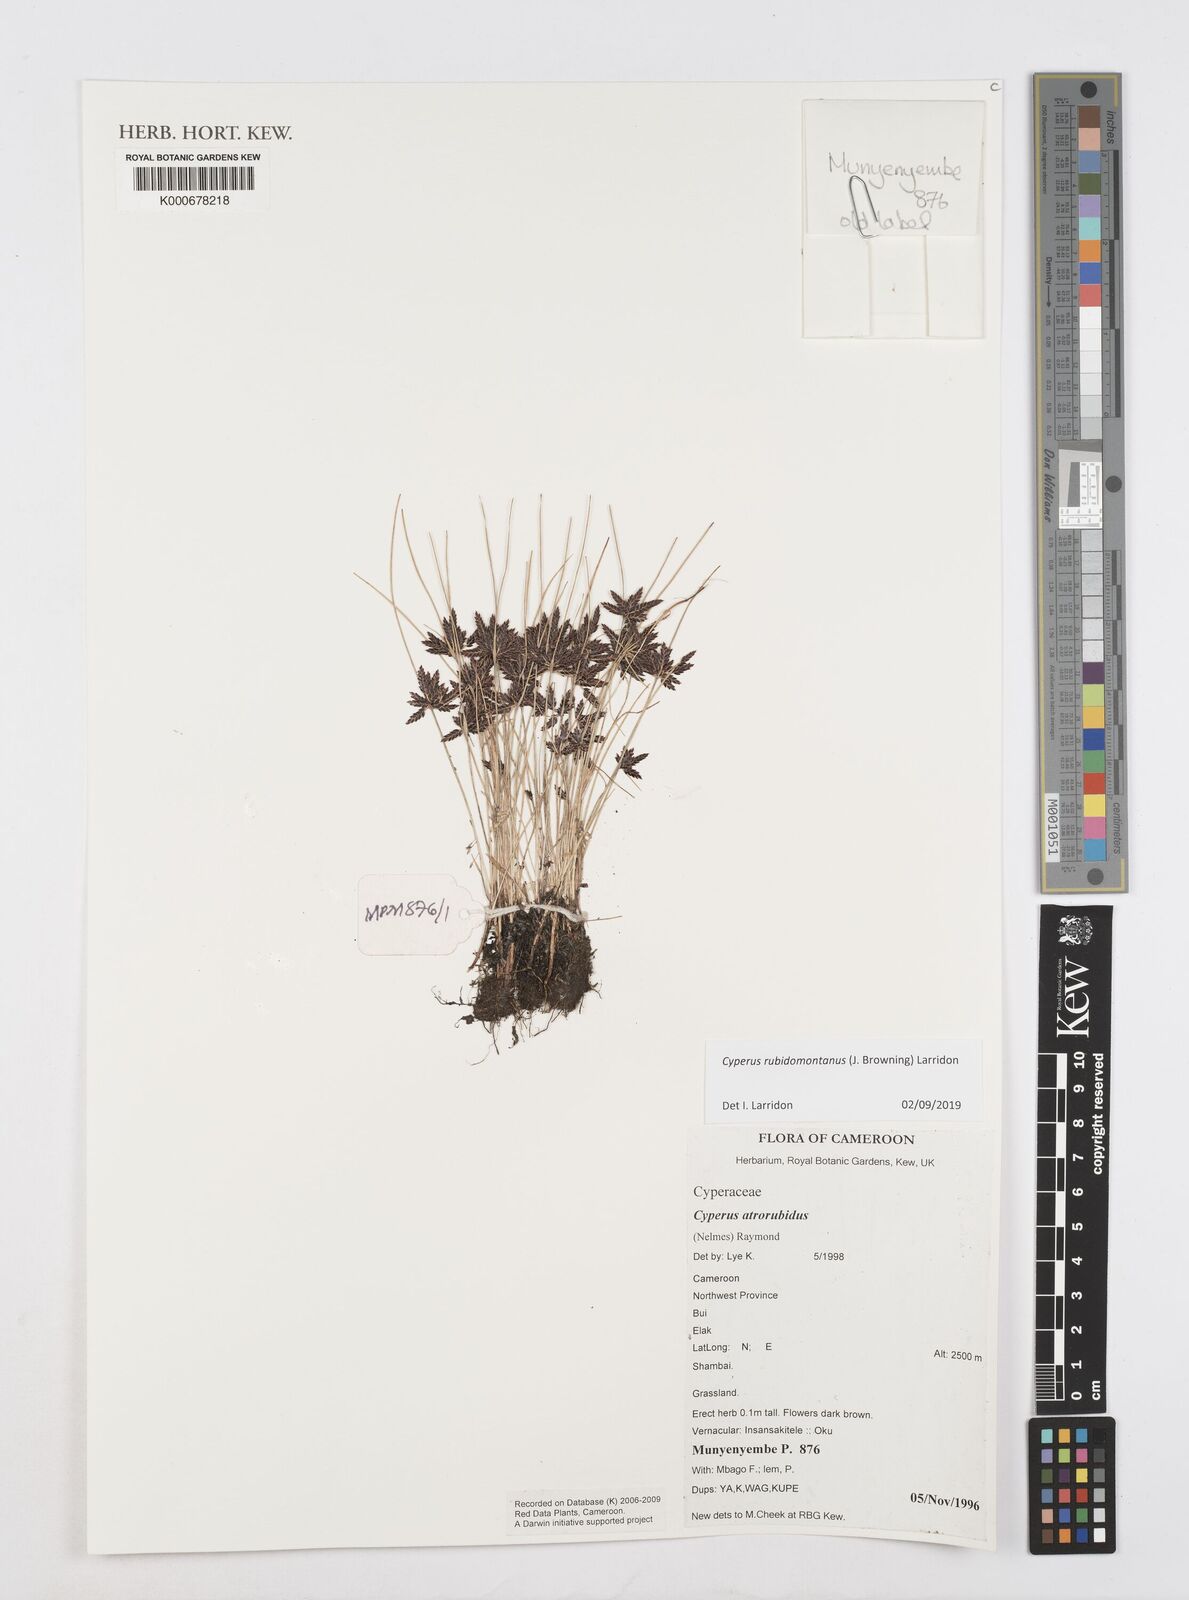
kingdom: Plantae
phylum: Tracheophyta
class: Liliopsida
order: Poales
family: Cyperaceae
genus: Cyperus
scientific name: Cyperus atrorubidus
